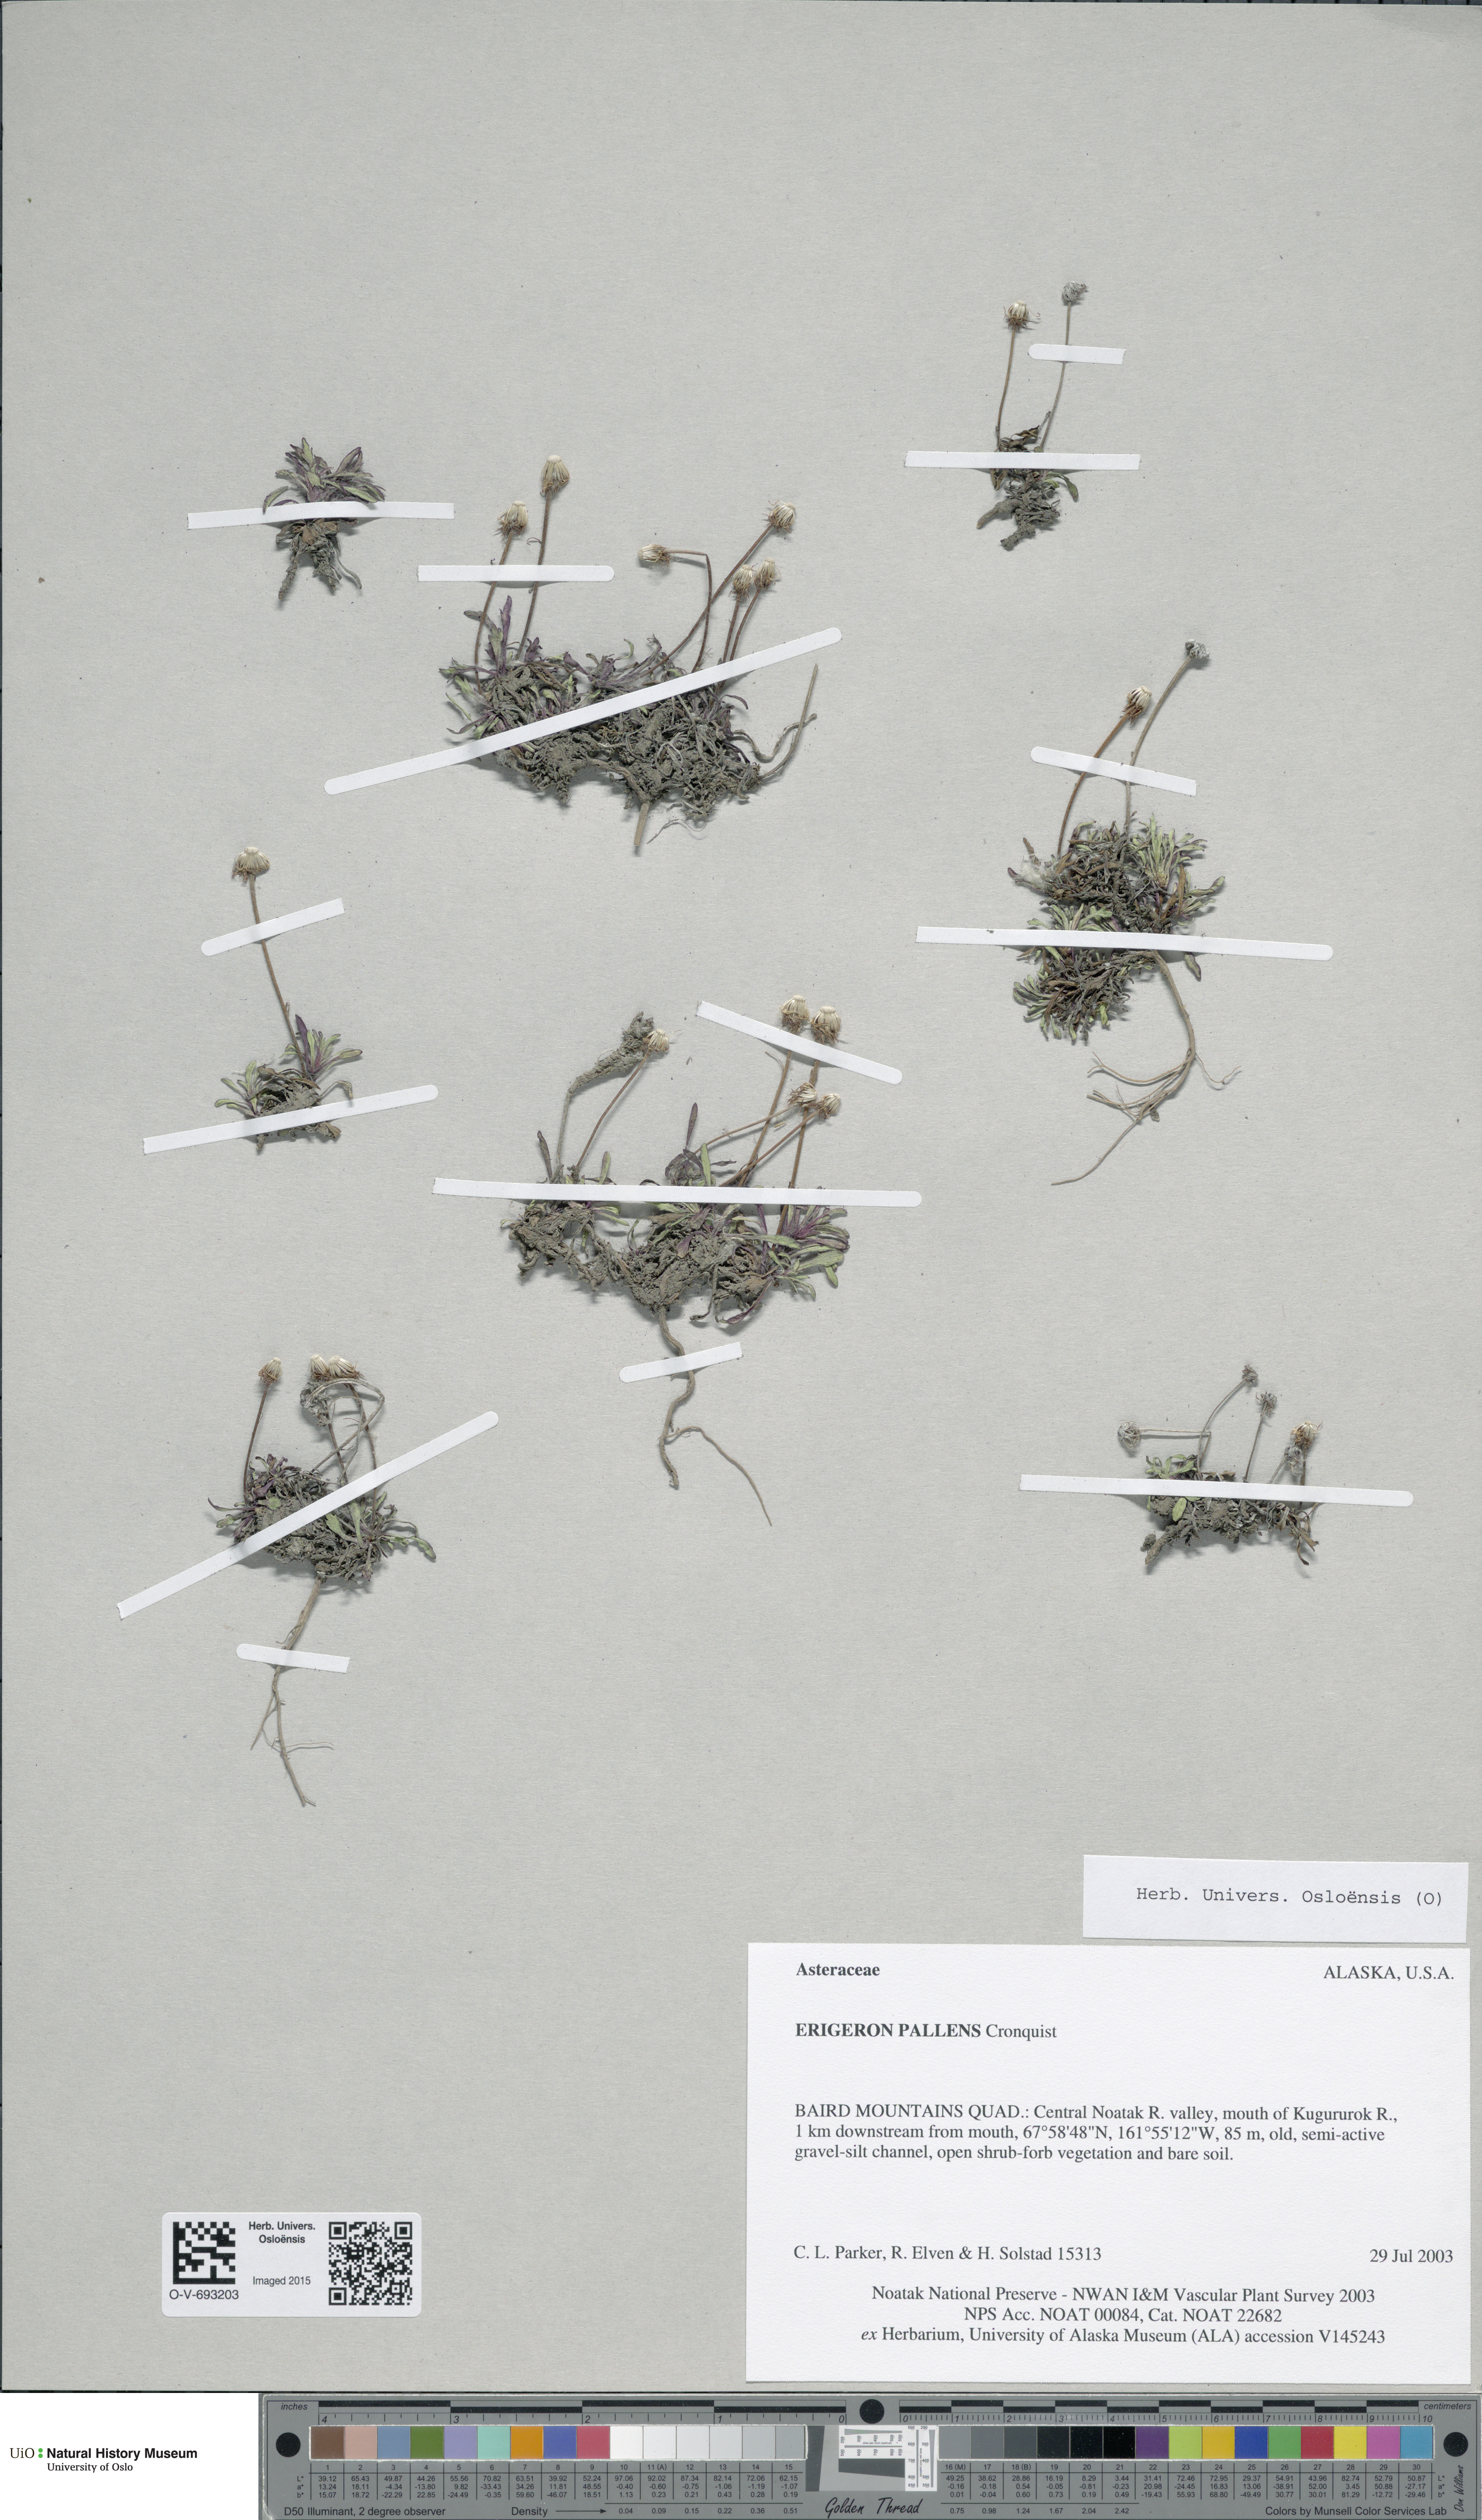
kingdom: Plantae
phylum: Tracheophyta
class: Magnoliopsida
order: Asterales
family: Asteraceae
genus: Erigeron
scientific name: Erigeron denalii
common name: Denali fleabane
